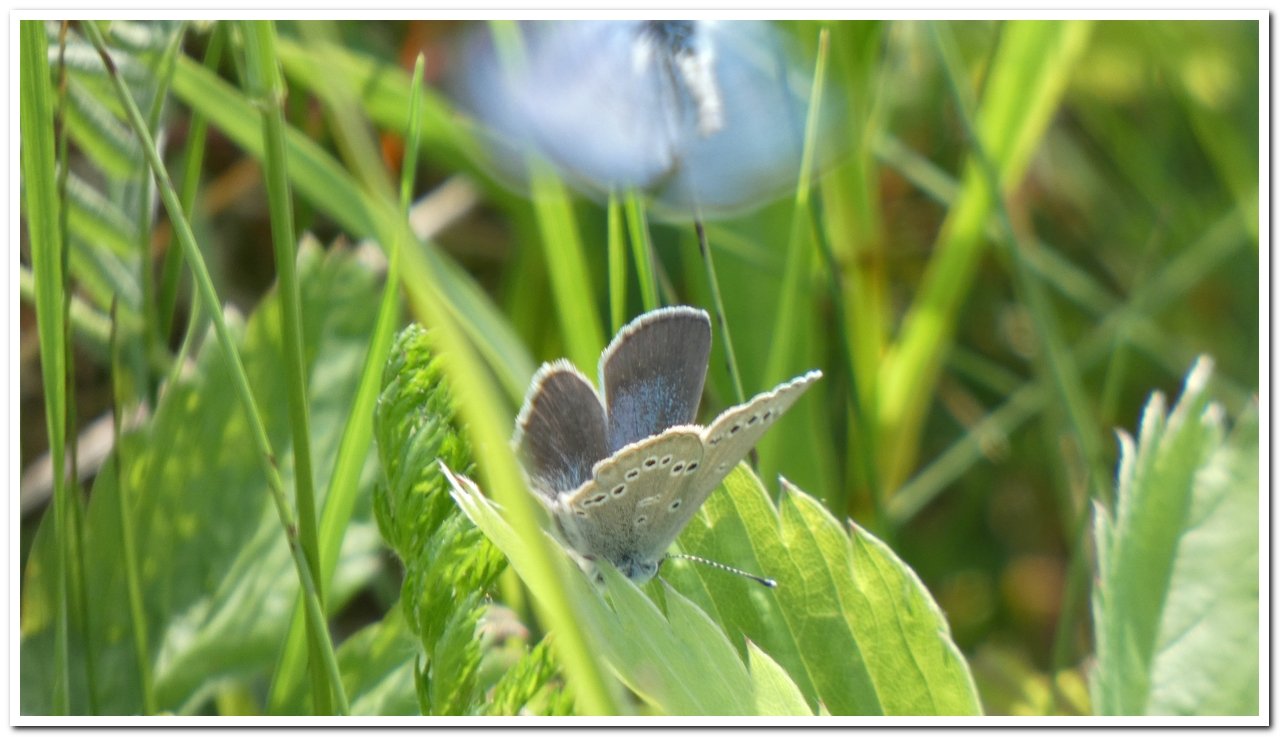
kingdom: Animalia
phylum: Arthropoda
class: Insecta
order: Lepidoptera
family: Lycaenidae
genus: Glaucopsyche
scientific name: Glaucopsyche lygdamus
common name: Silvery Blue
